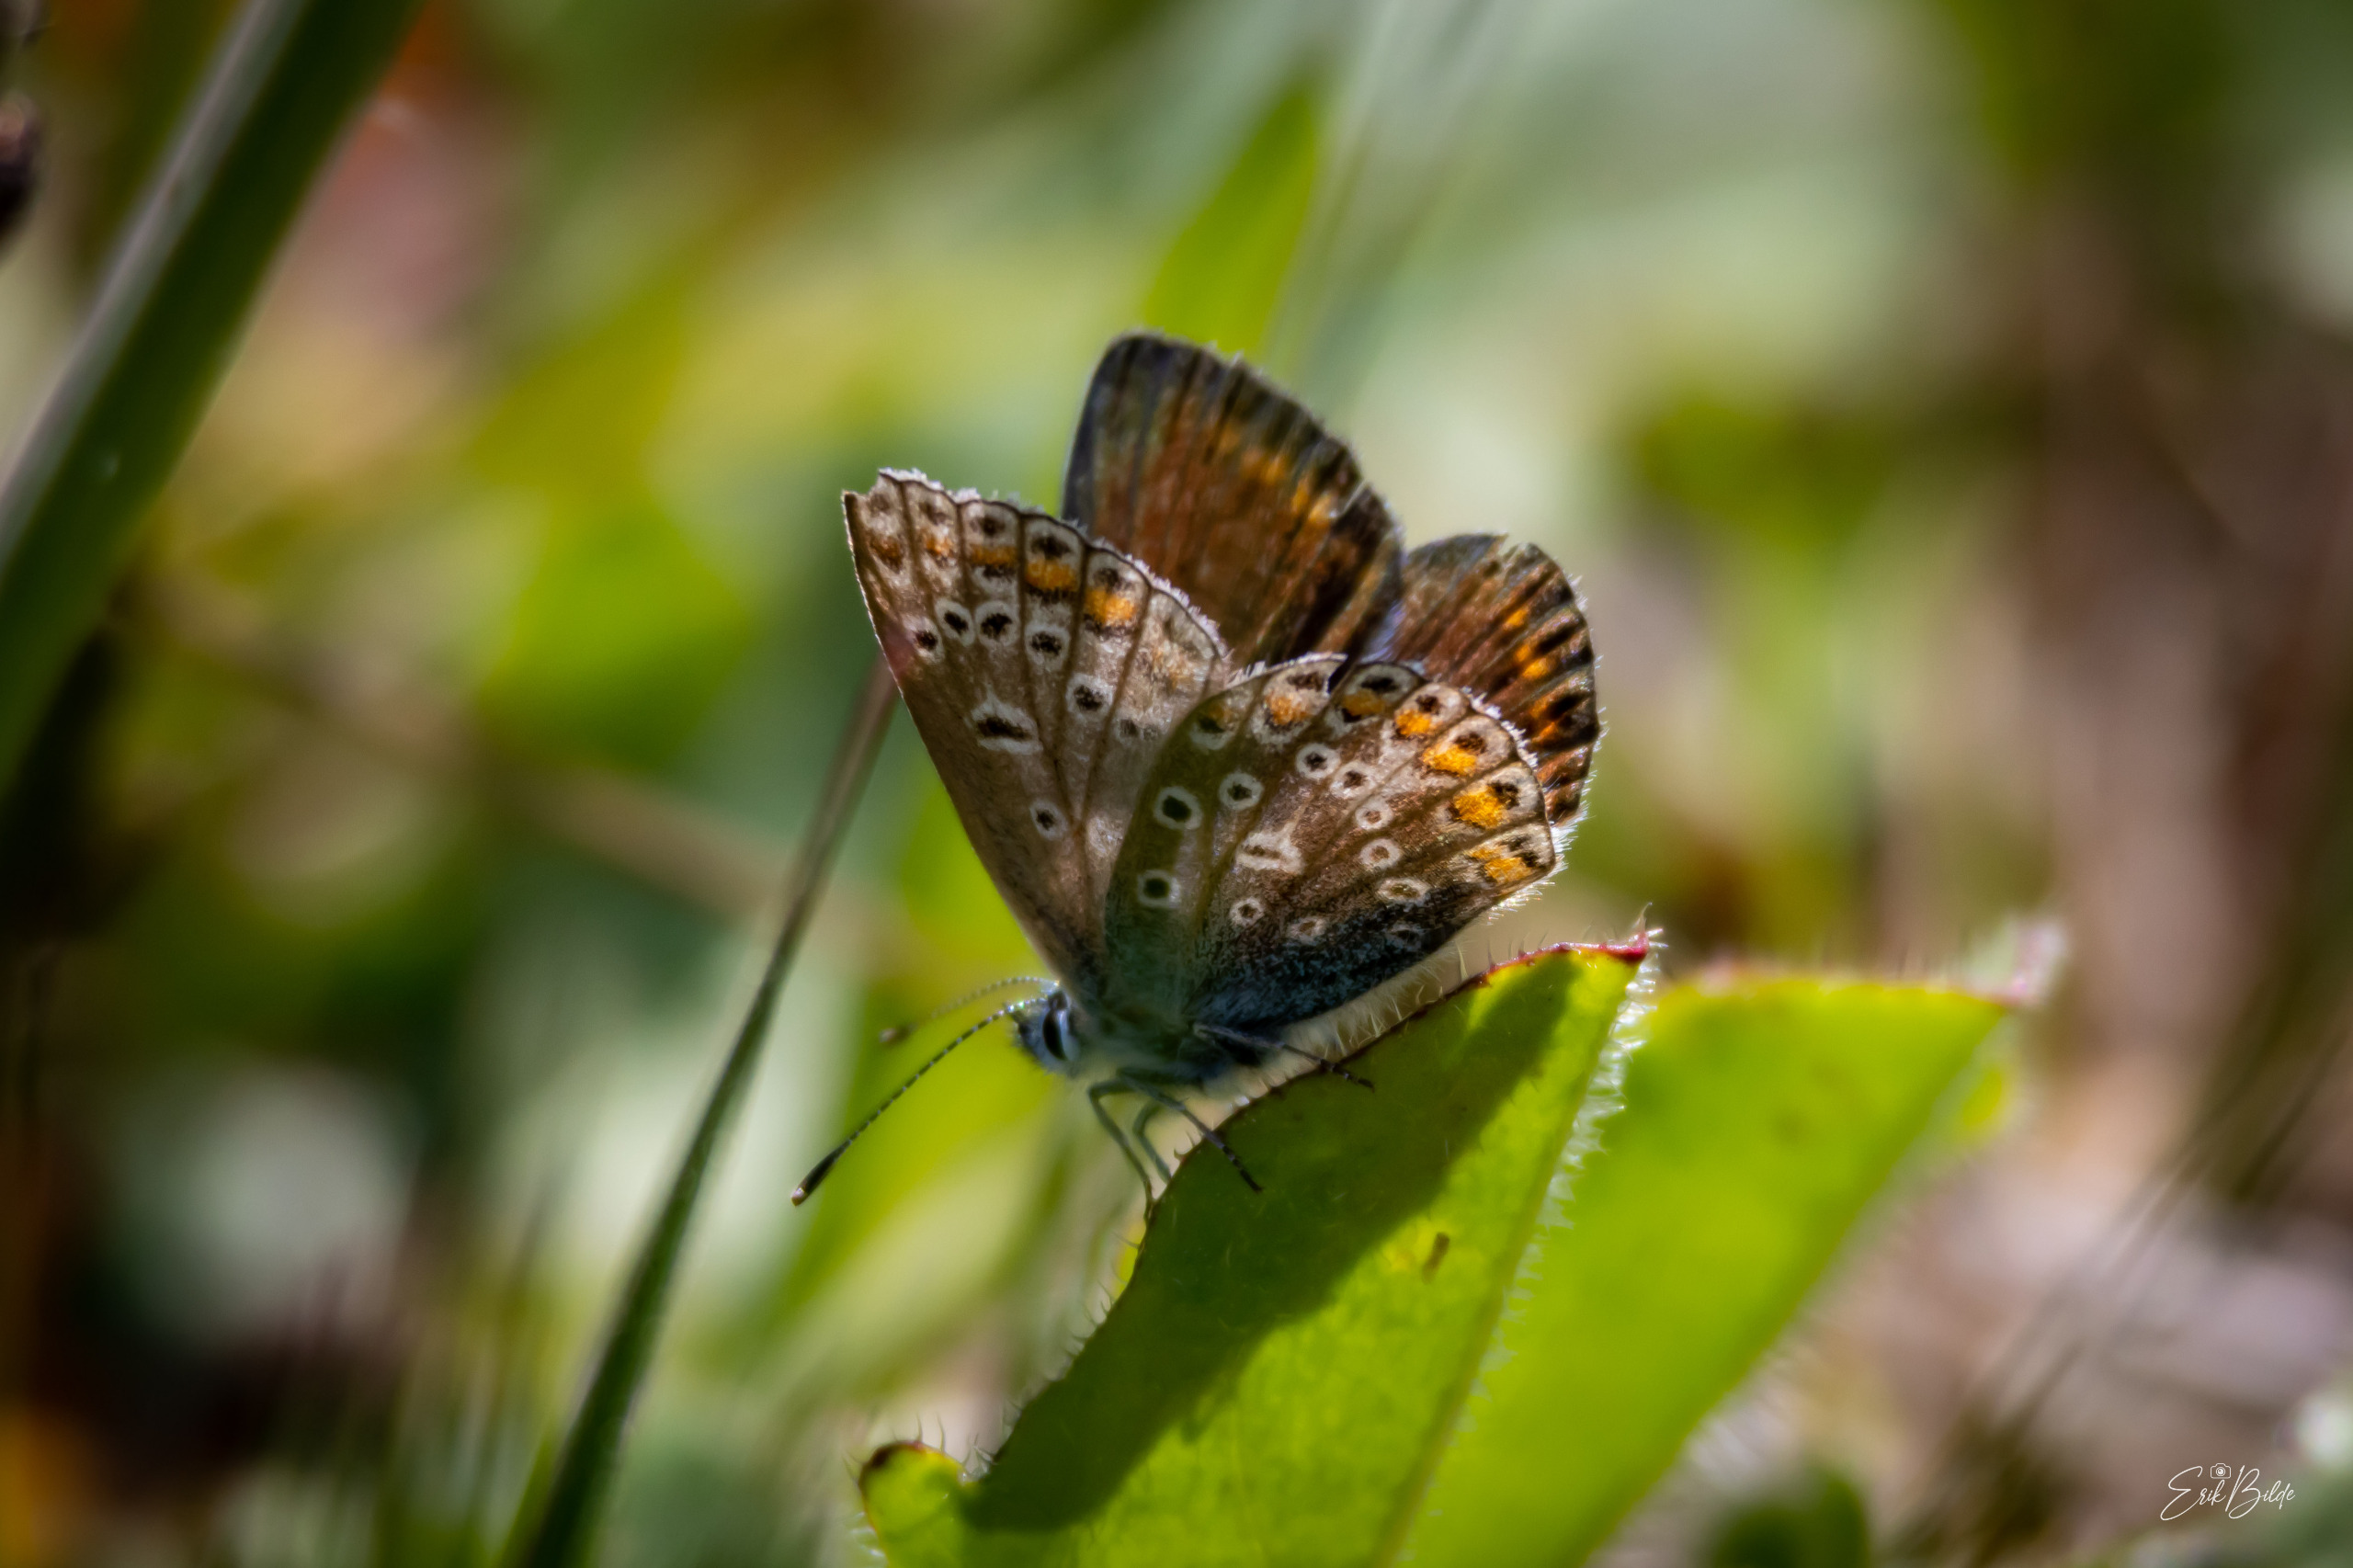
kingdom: Animalia
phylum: Arthropoda
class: Insecta
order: Lepidoptera
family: Lycaenidae
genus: Polyommatus
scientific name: Polyommatus icarus
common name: Almindelig blåfugl
